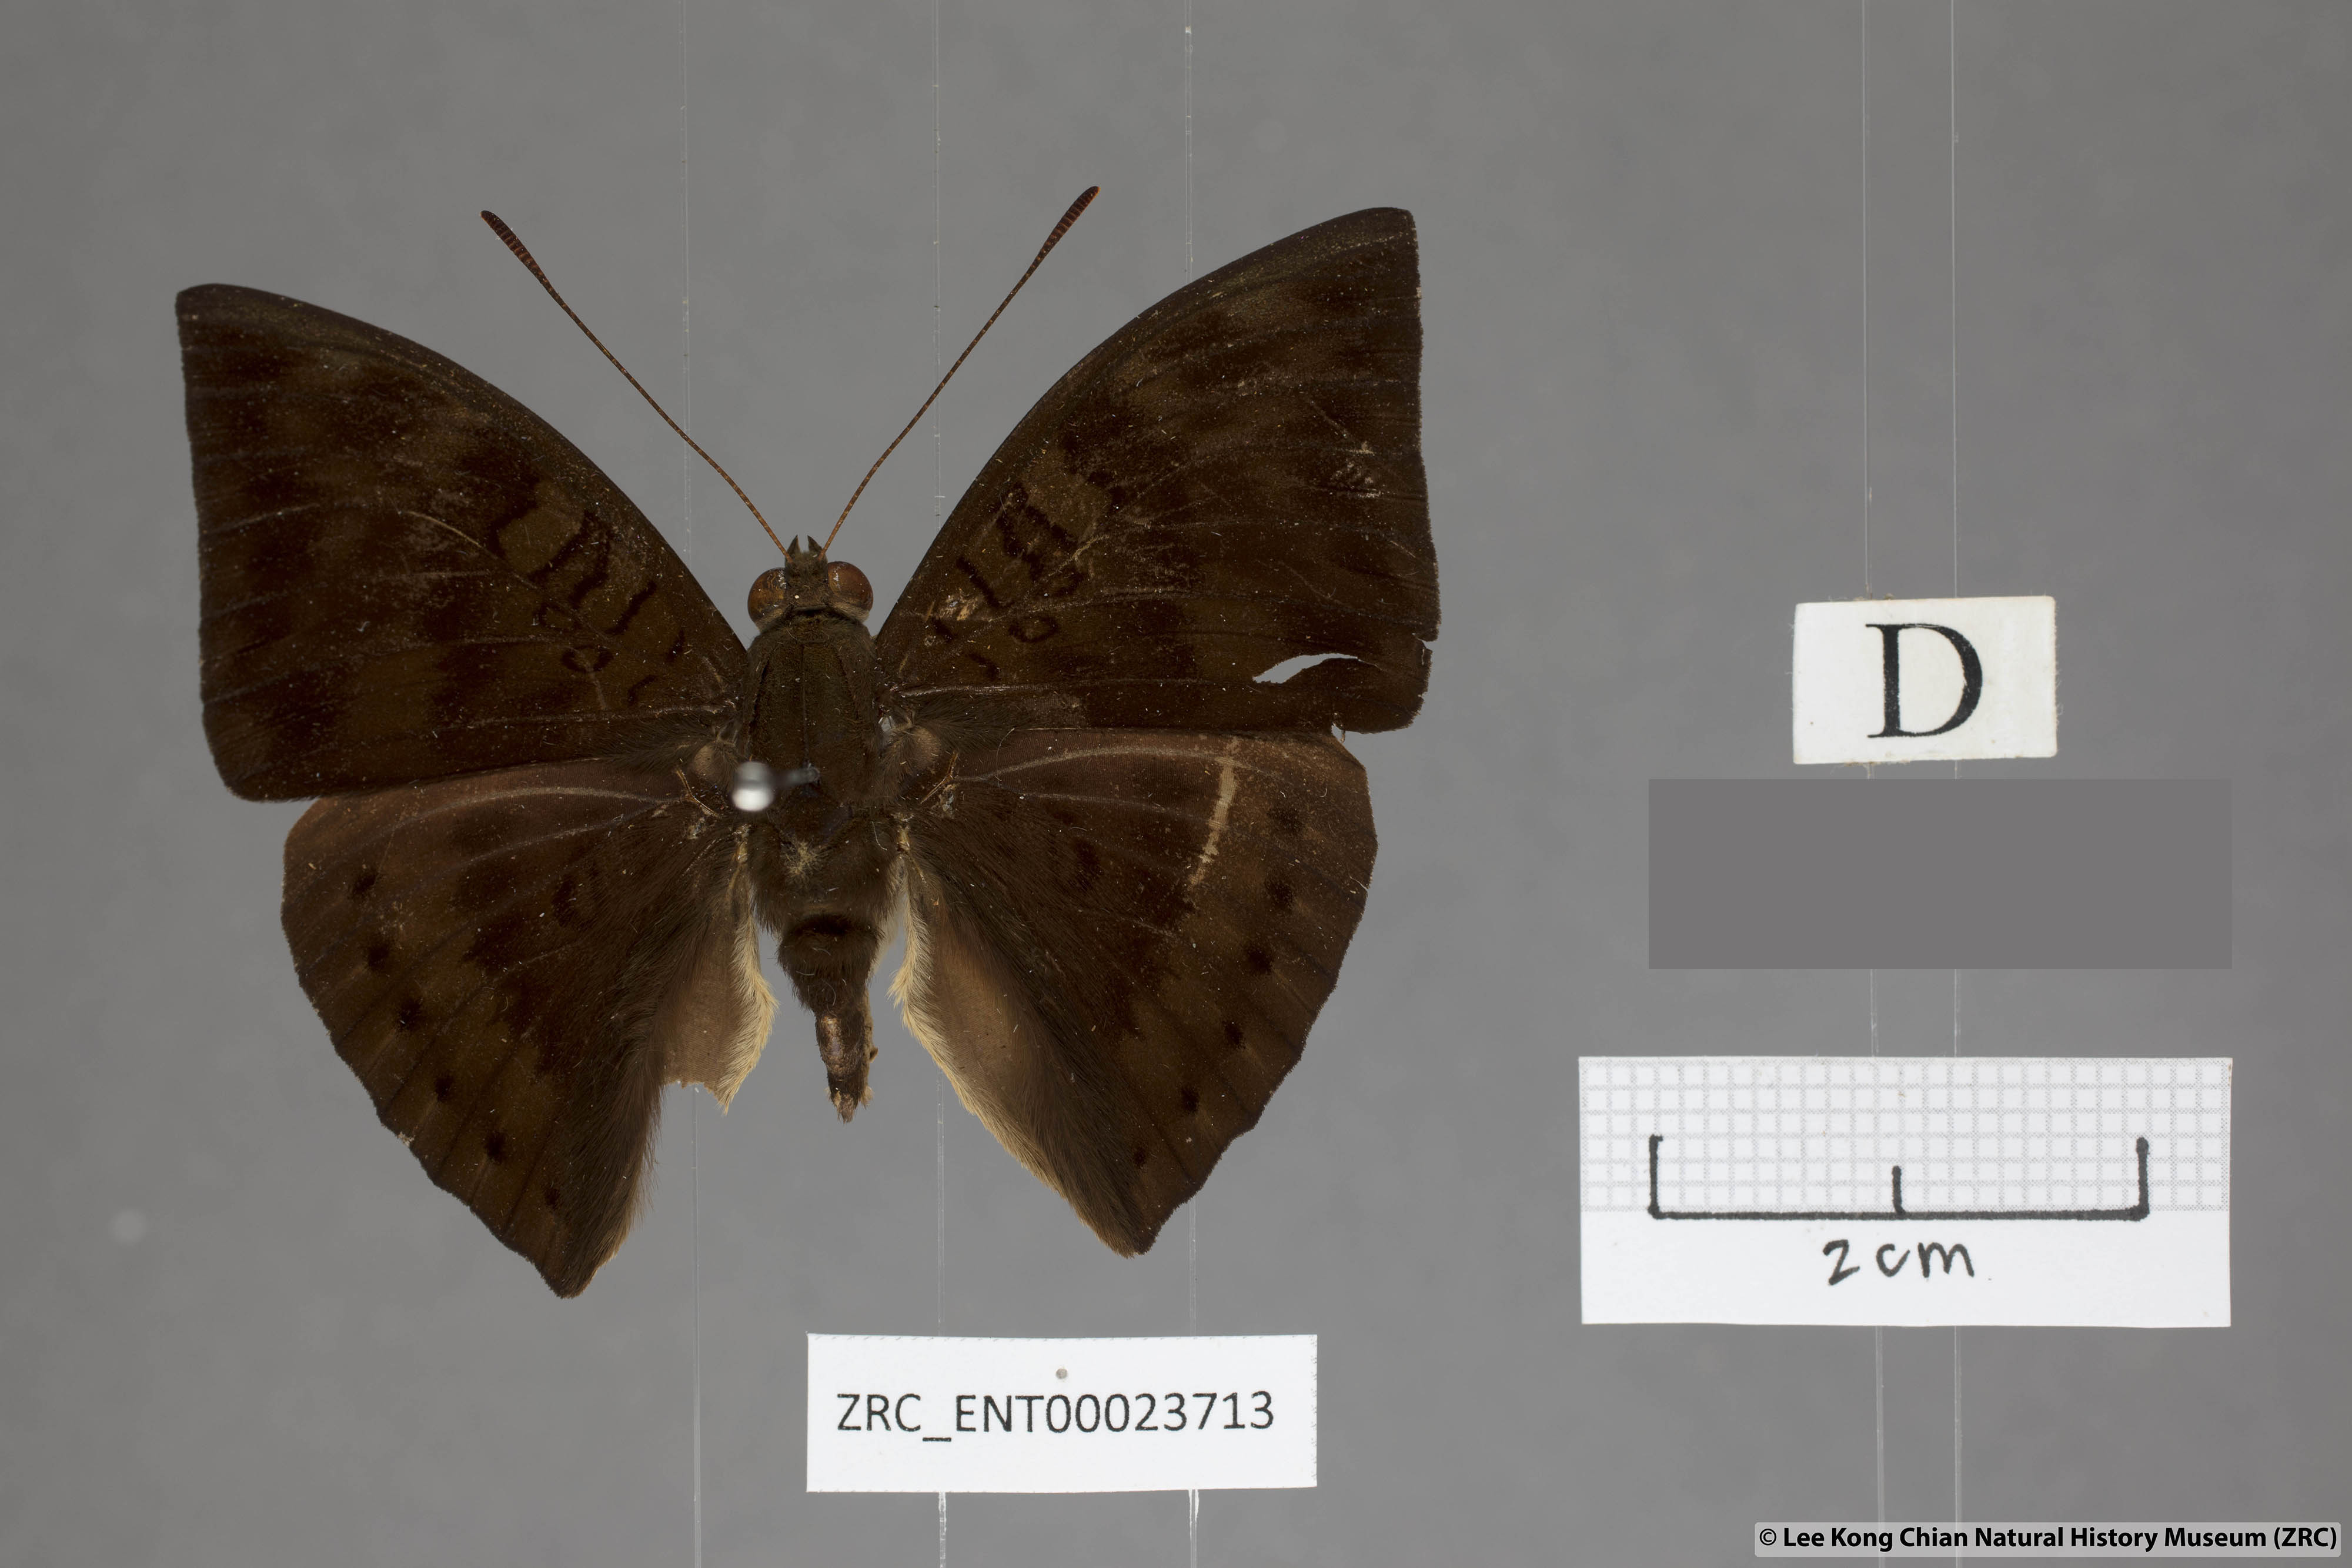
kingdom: Animalia
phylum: Arthropoda
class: Insecta
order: Lepidoptera
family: Nymphalidae
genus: Euthalia
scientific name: Euthalia merta
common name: White tipped baron
